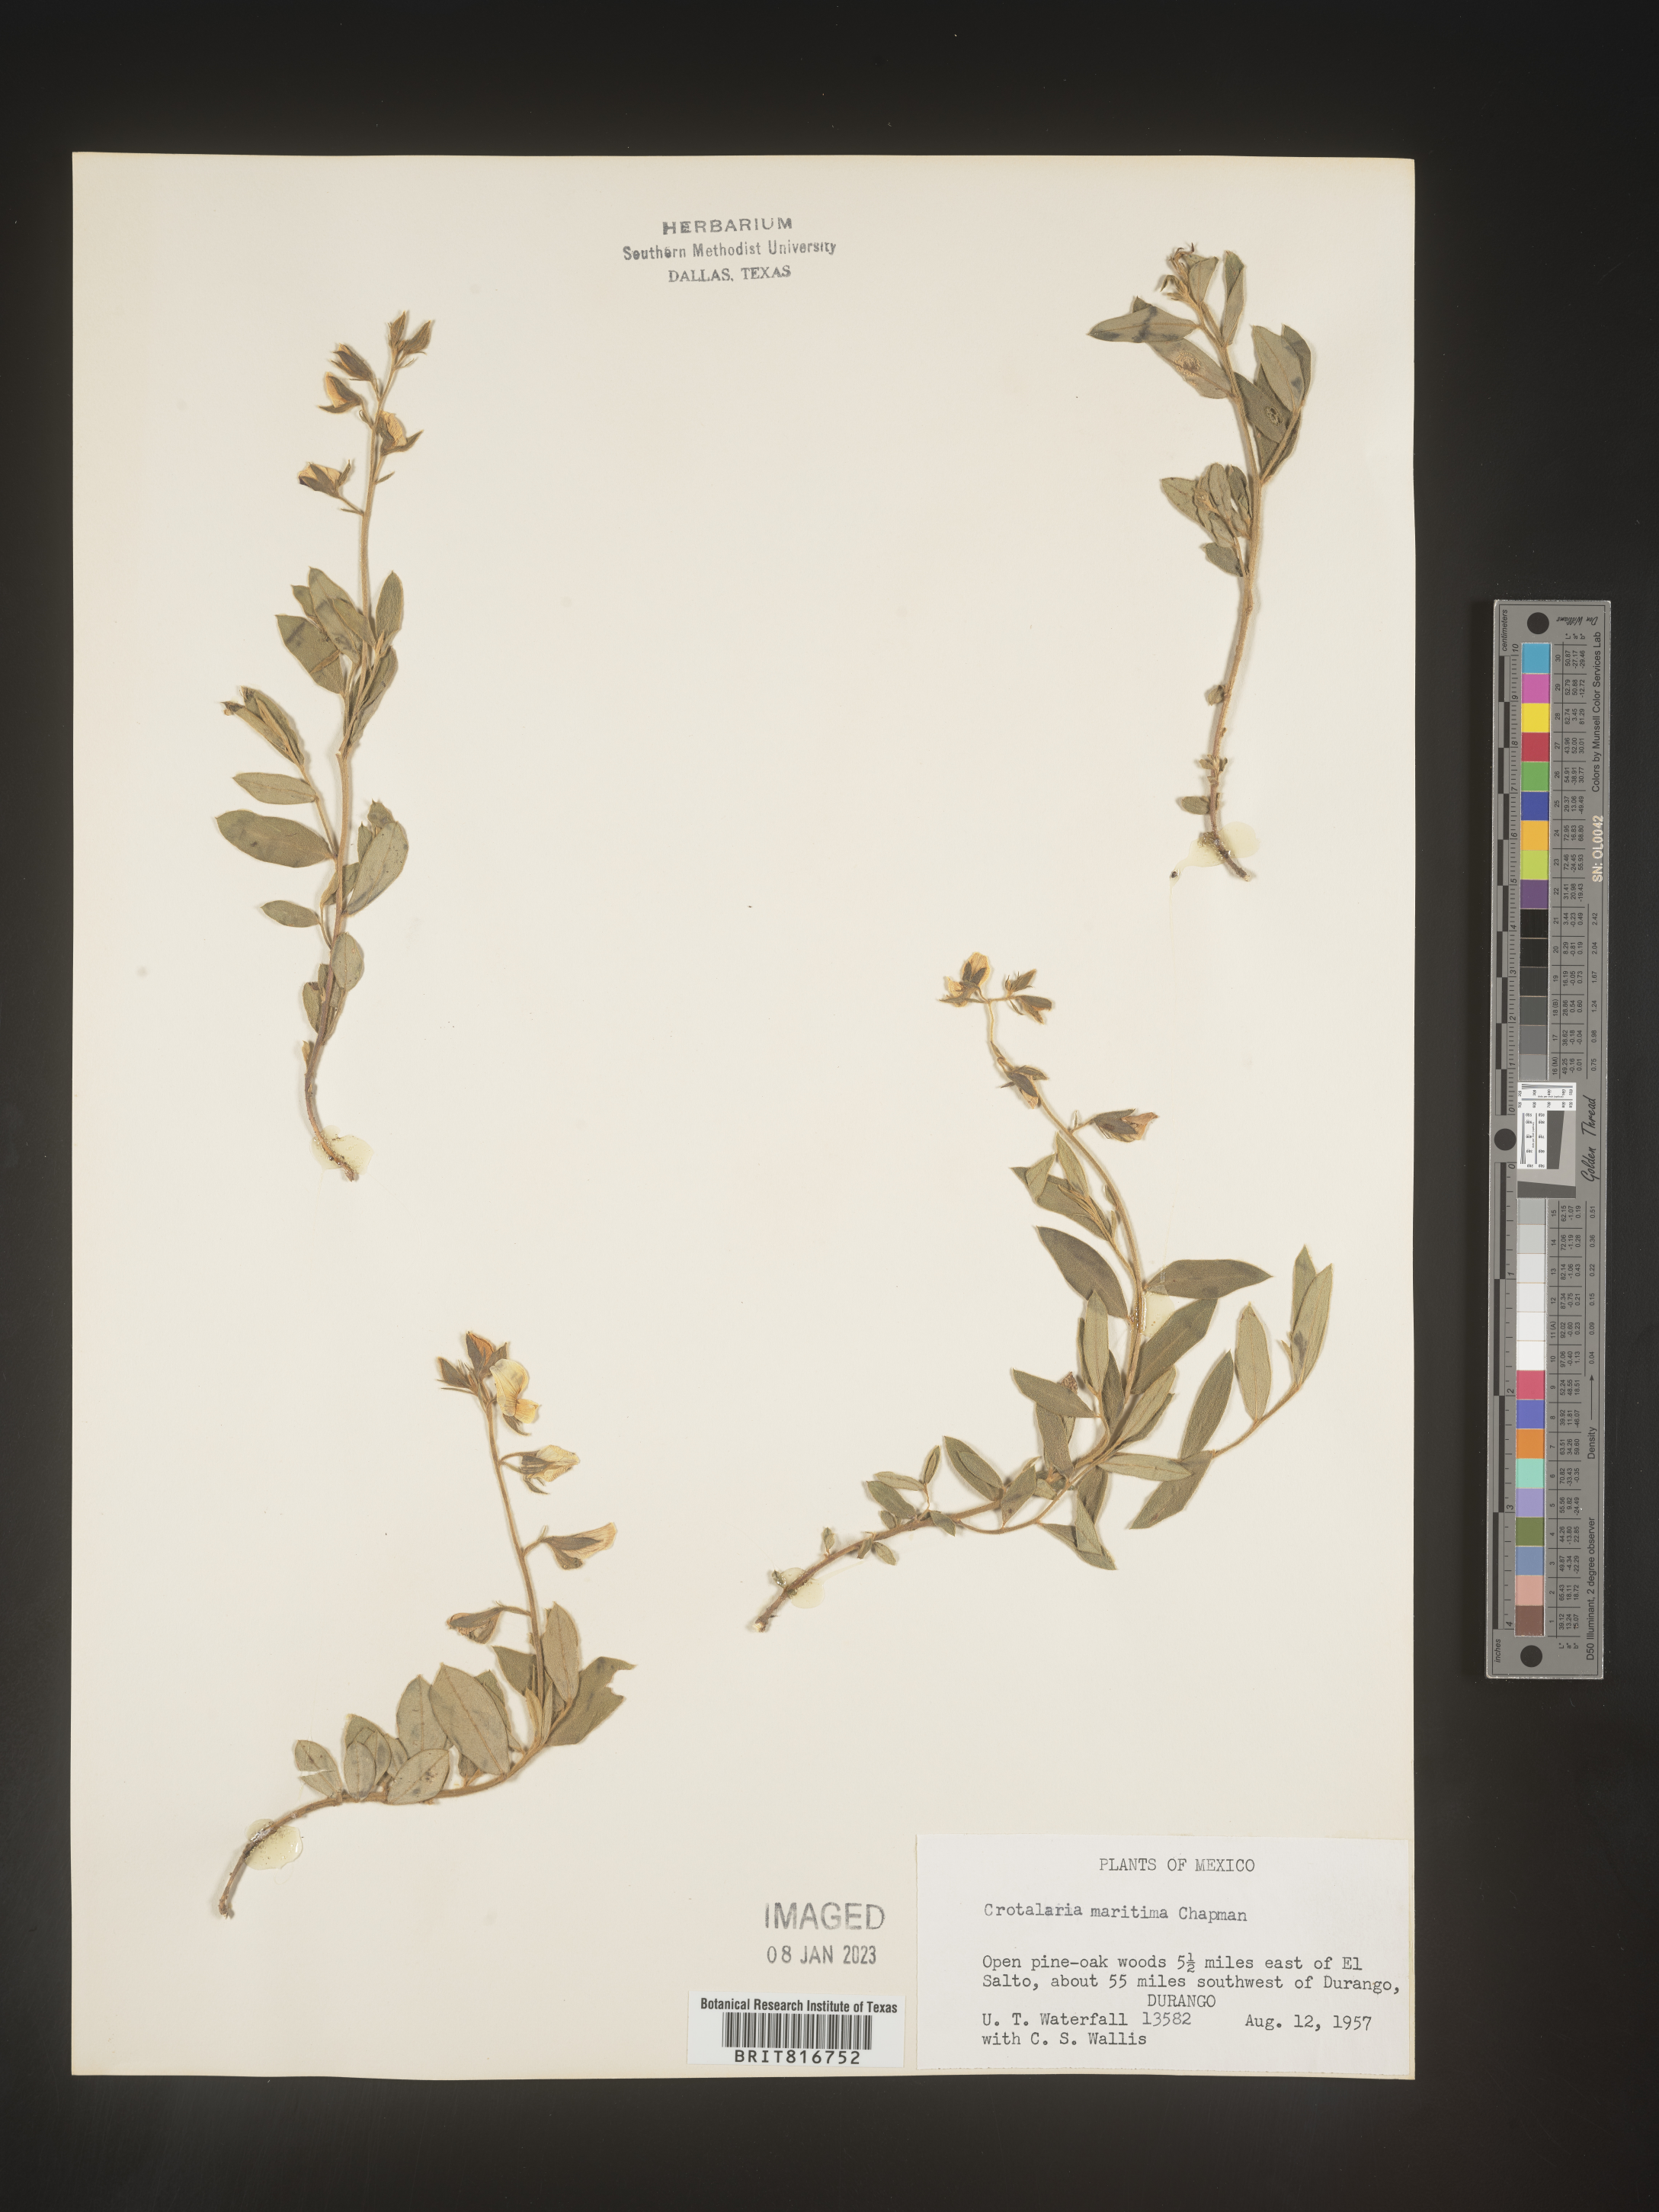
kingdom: Plantae
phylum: Tracheophyta
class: Magnoliopsida
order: Fabales
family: Fabaceae
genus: Crotalaria
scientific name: Crotalaria
